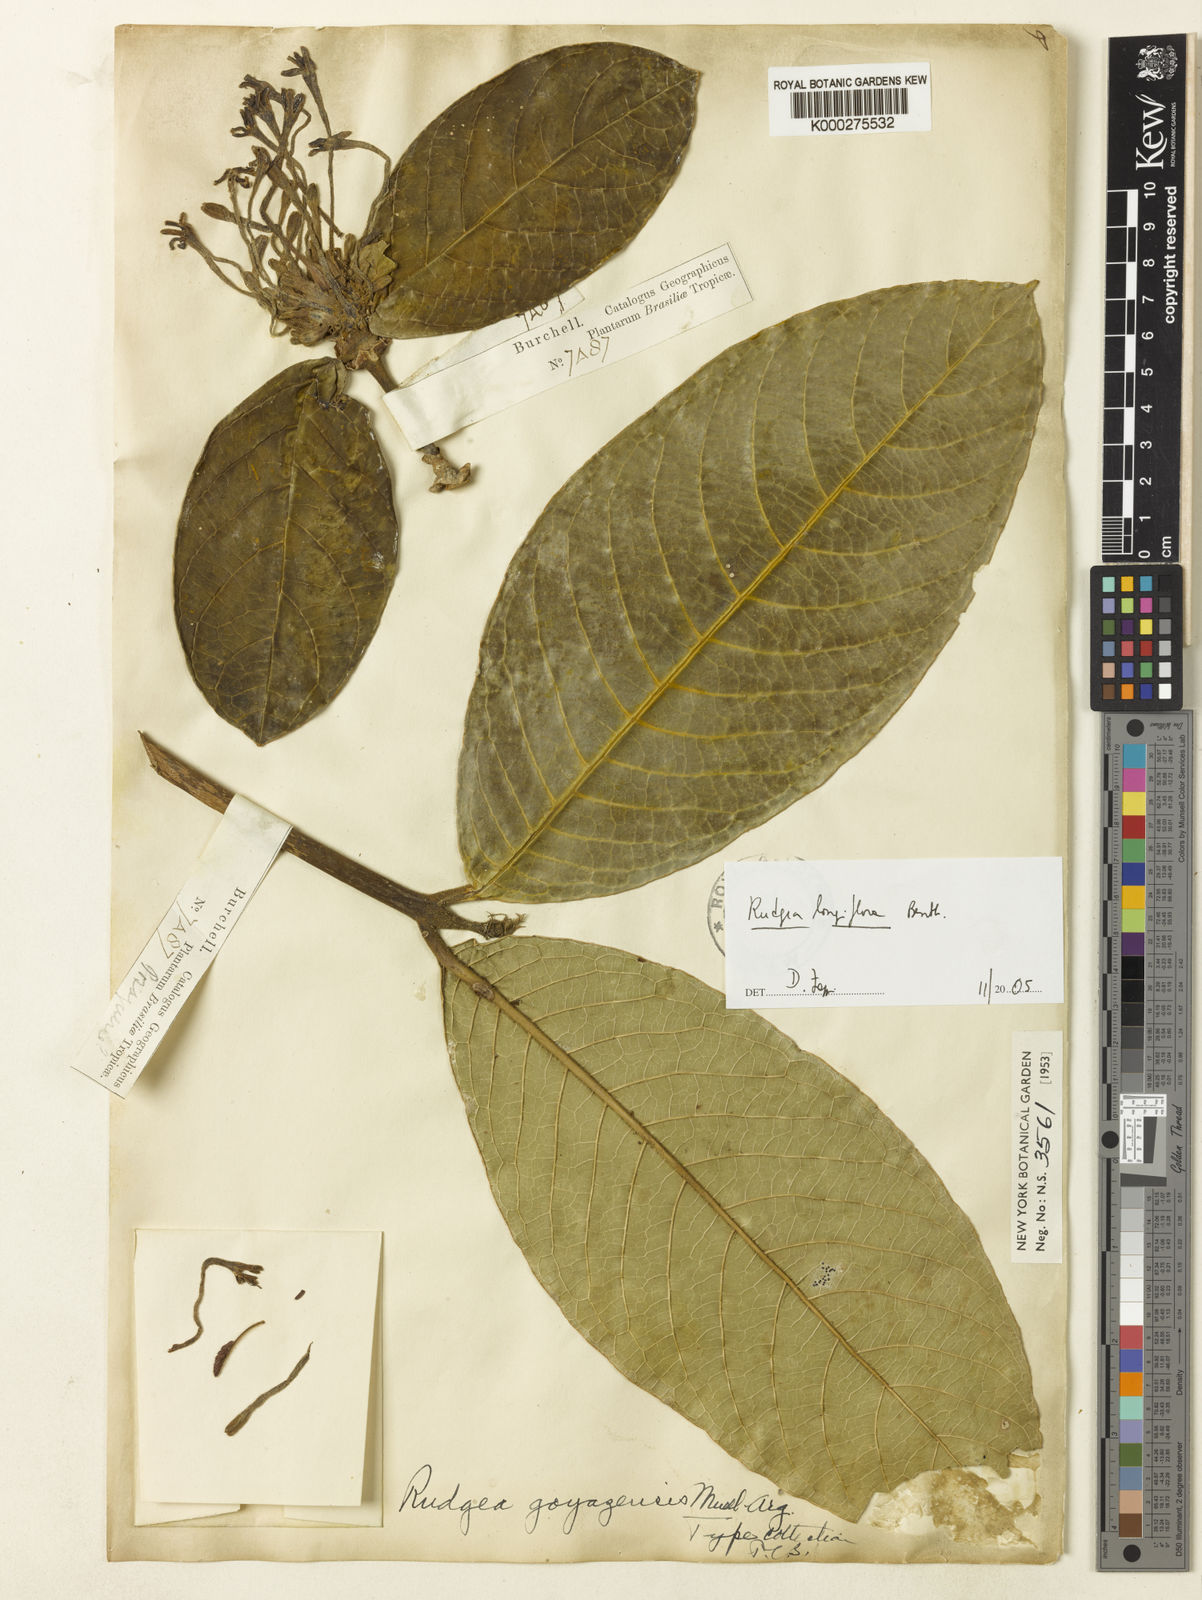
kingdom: Plantae
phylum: Tracheophyta
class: Magnoliopsida
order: Gentianales
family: Rubiaceae
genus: Rudgea
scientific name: Rudgea longiflora
